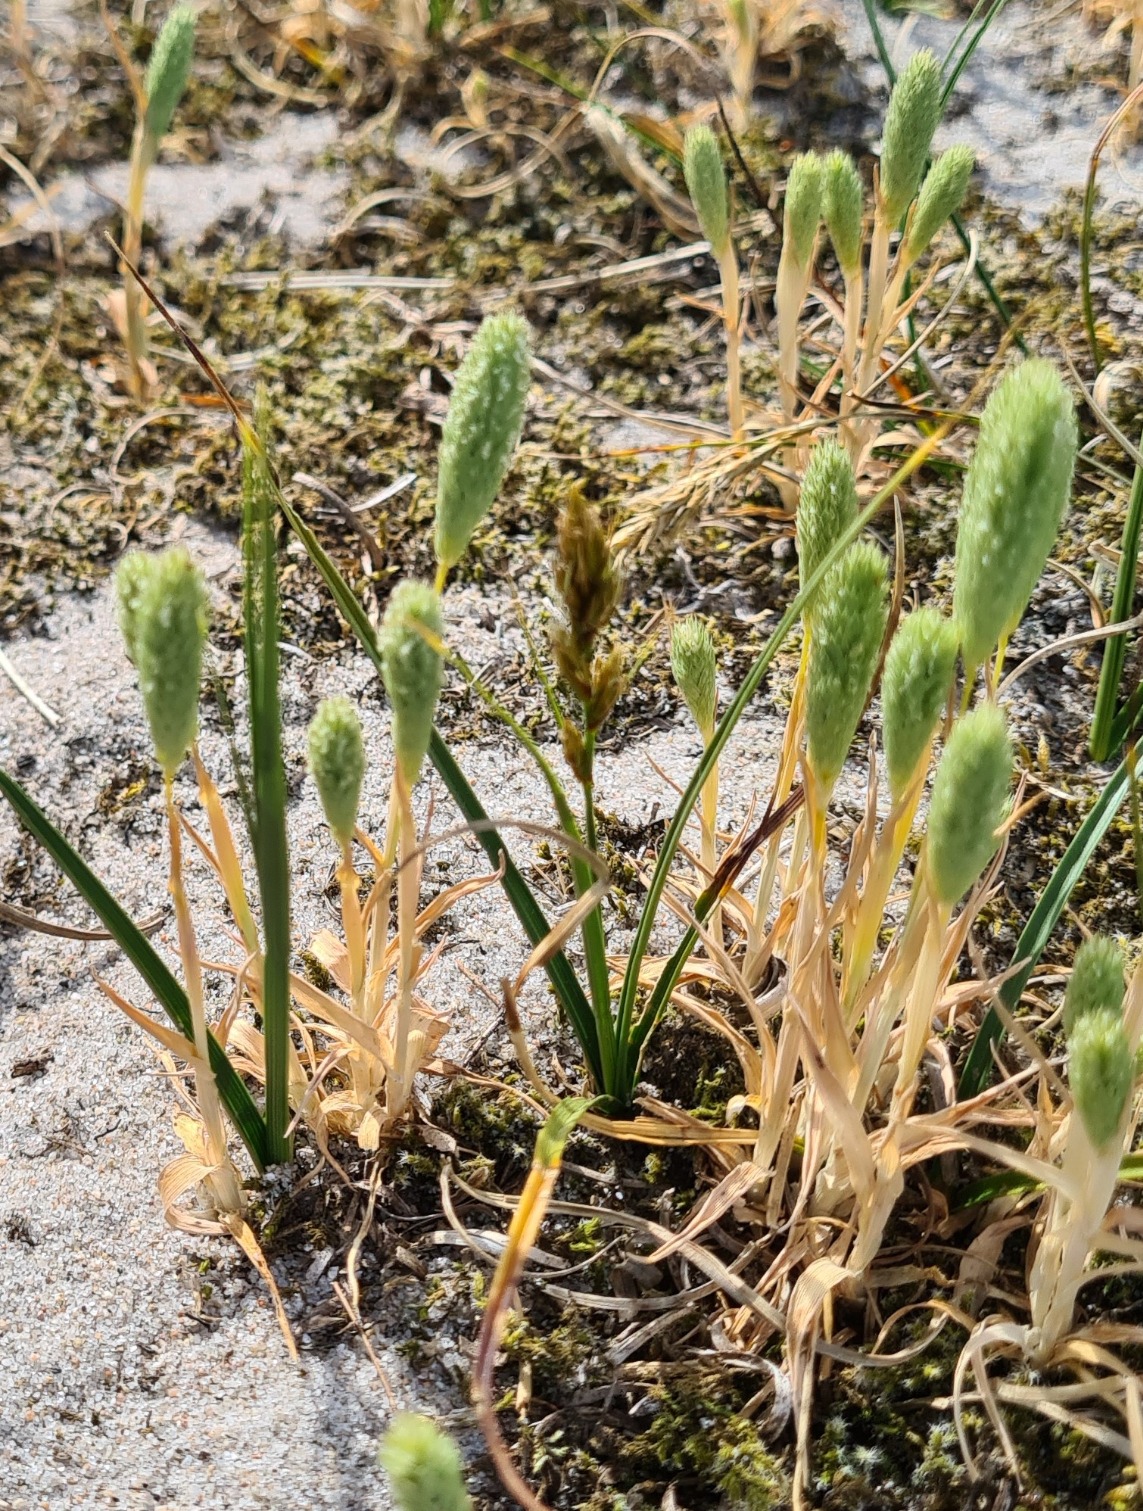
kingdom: Plantae
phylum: Tracheophyta
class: Liliopsida
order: Poales
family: Poaceae
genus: Phleum
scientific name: Phleum arenarium
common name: Sand-rottehale
